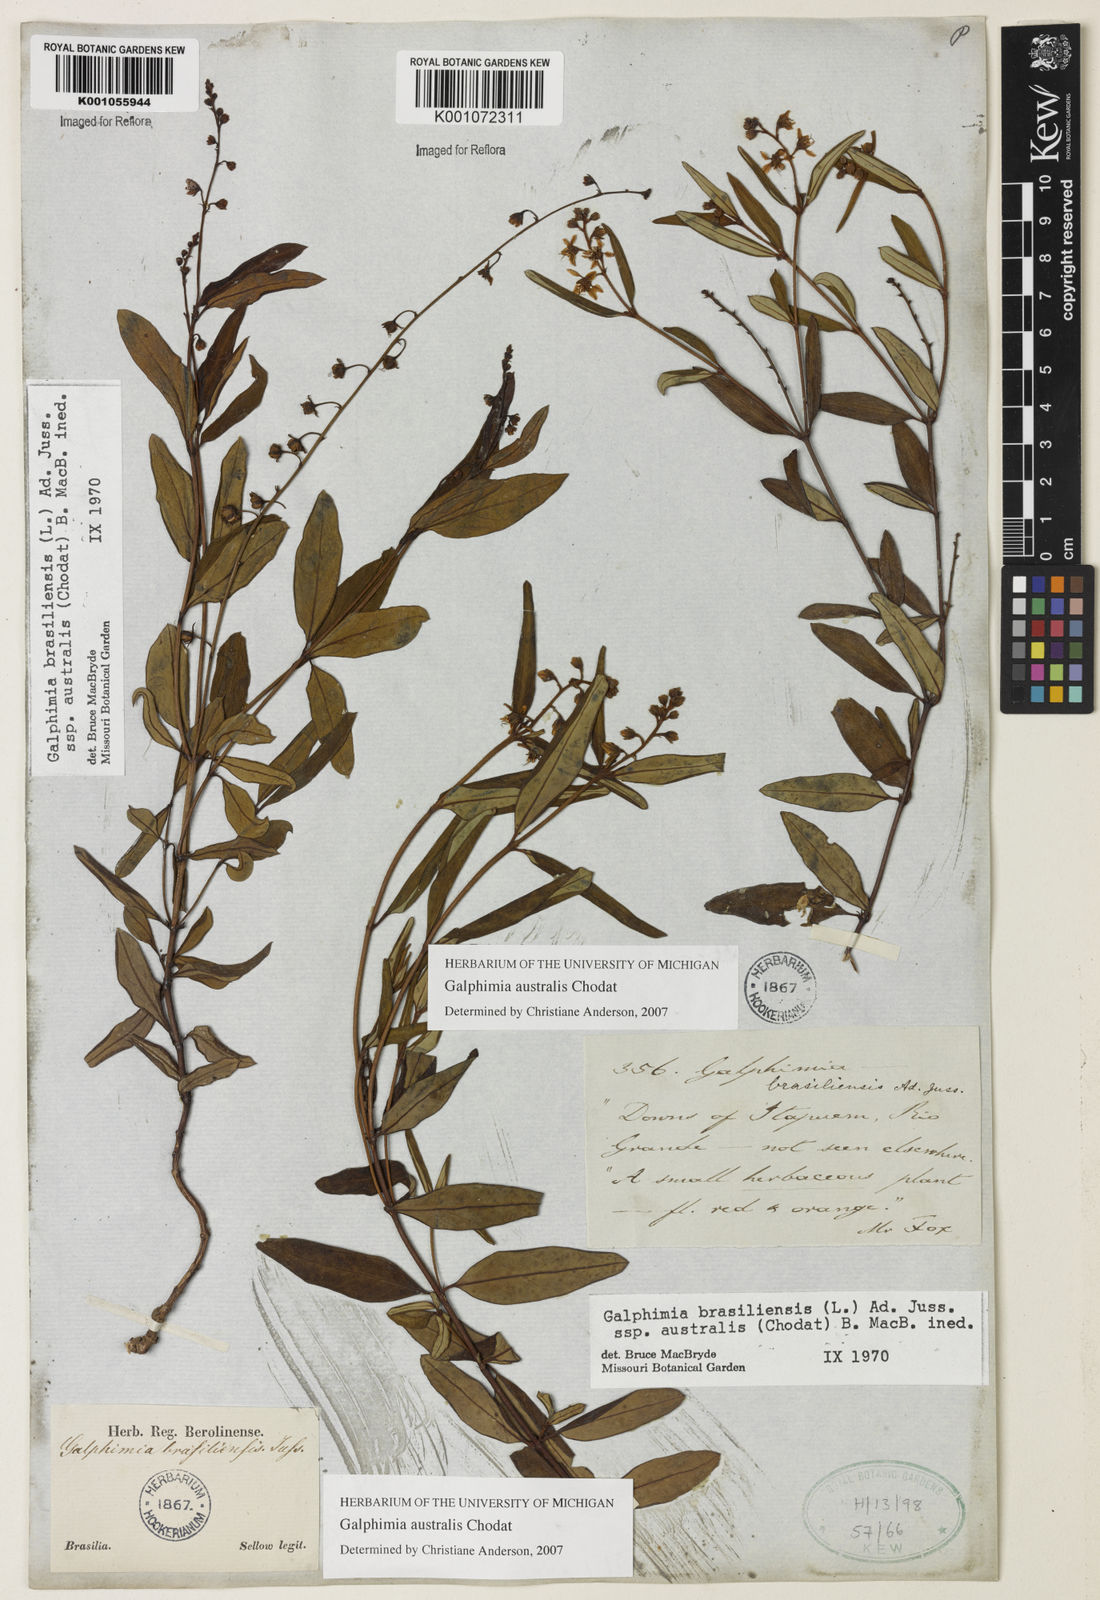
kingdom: Plantae
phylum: Tracheophyta
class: Magnoliopsida
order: Malpighiales
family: Malpighiaceae
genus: Galphimia
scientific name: Galphimia brasiliensis
